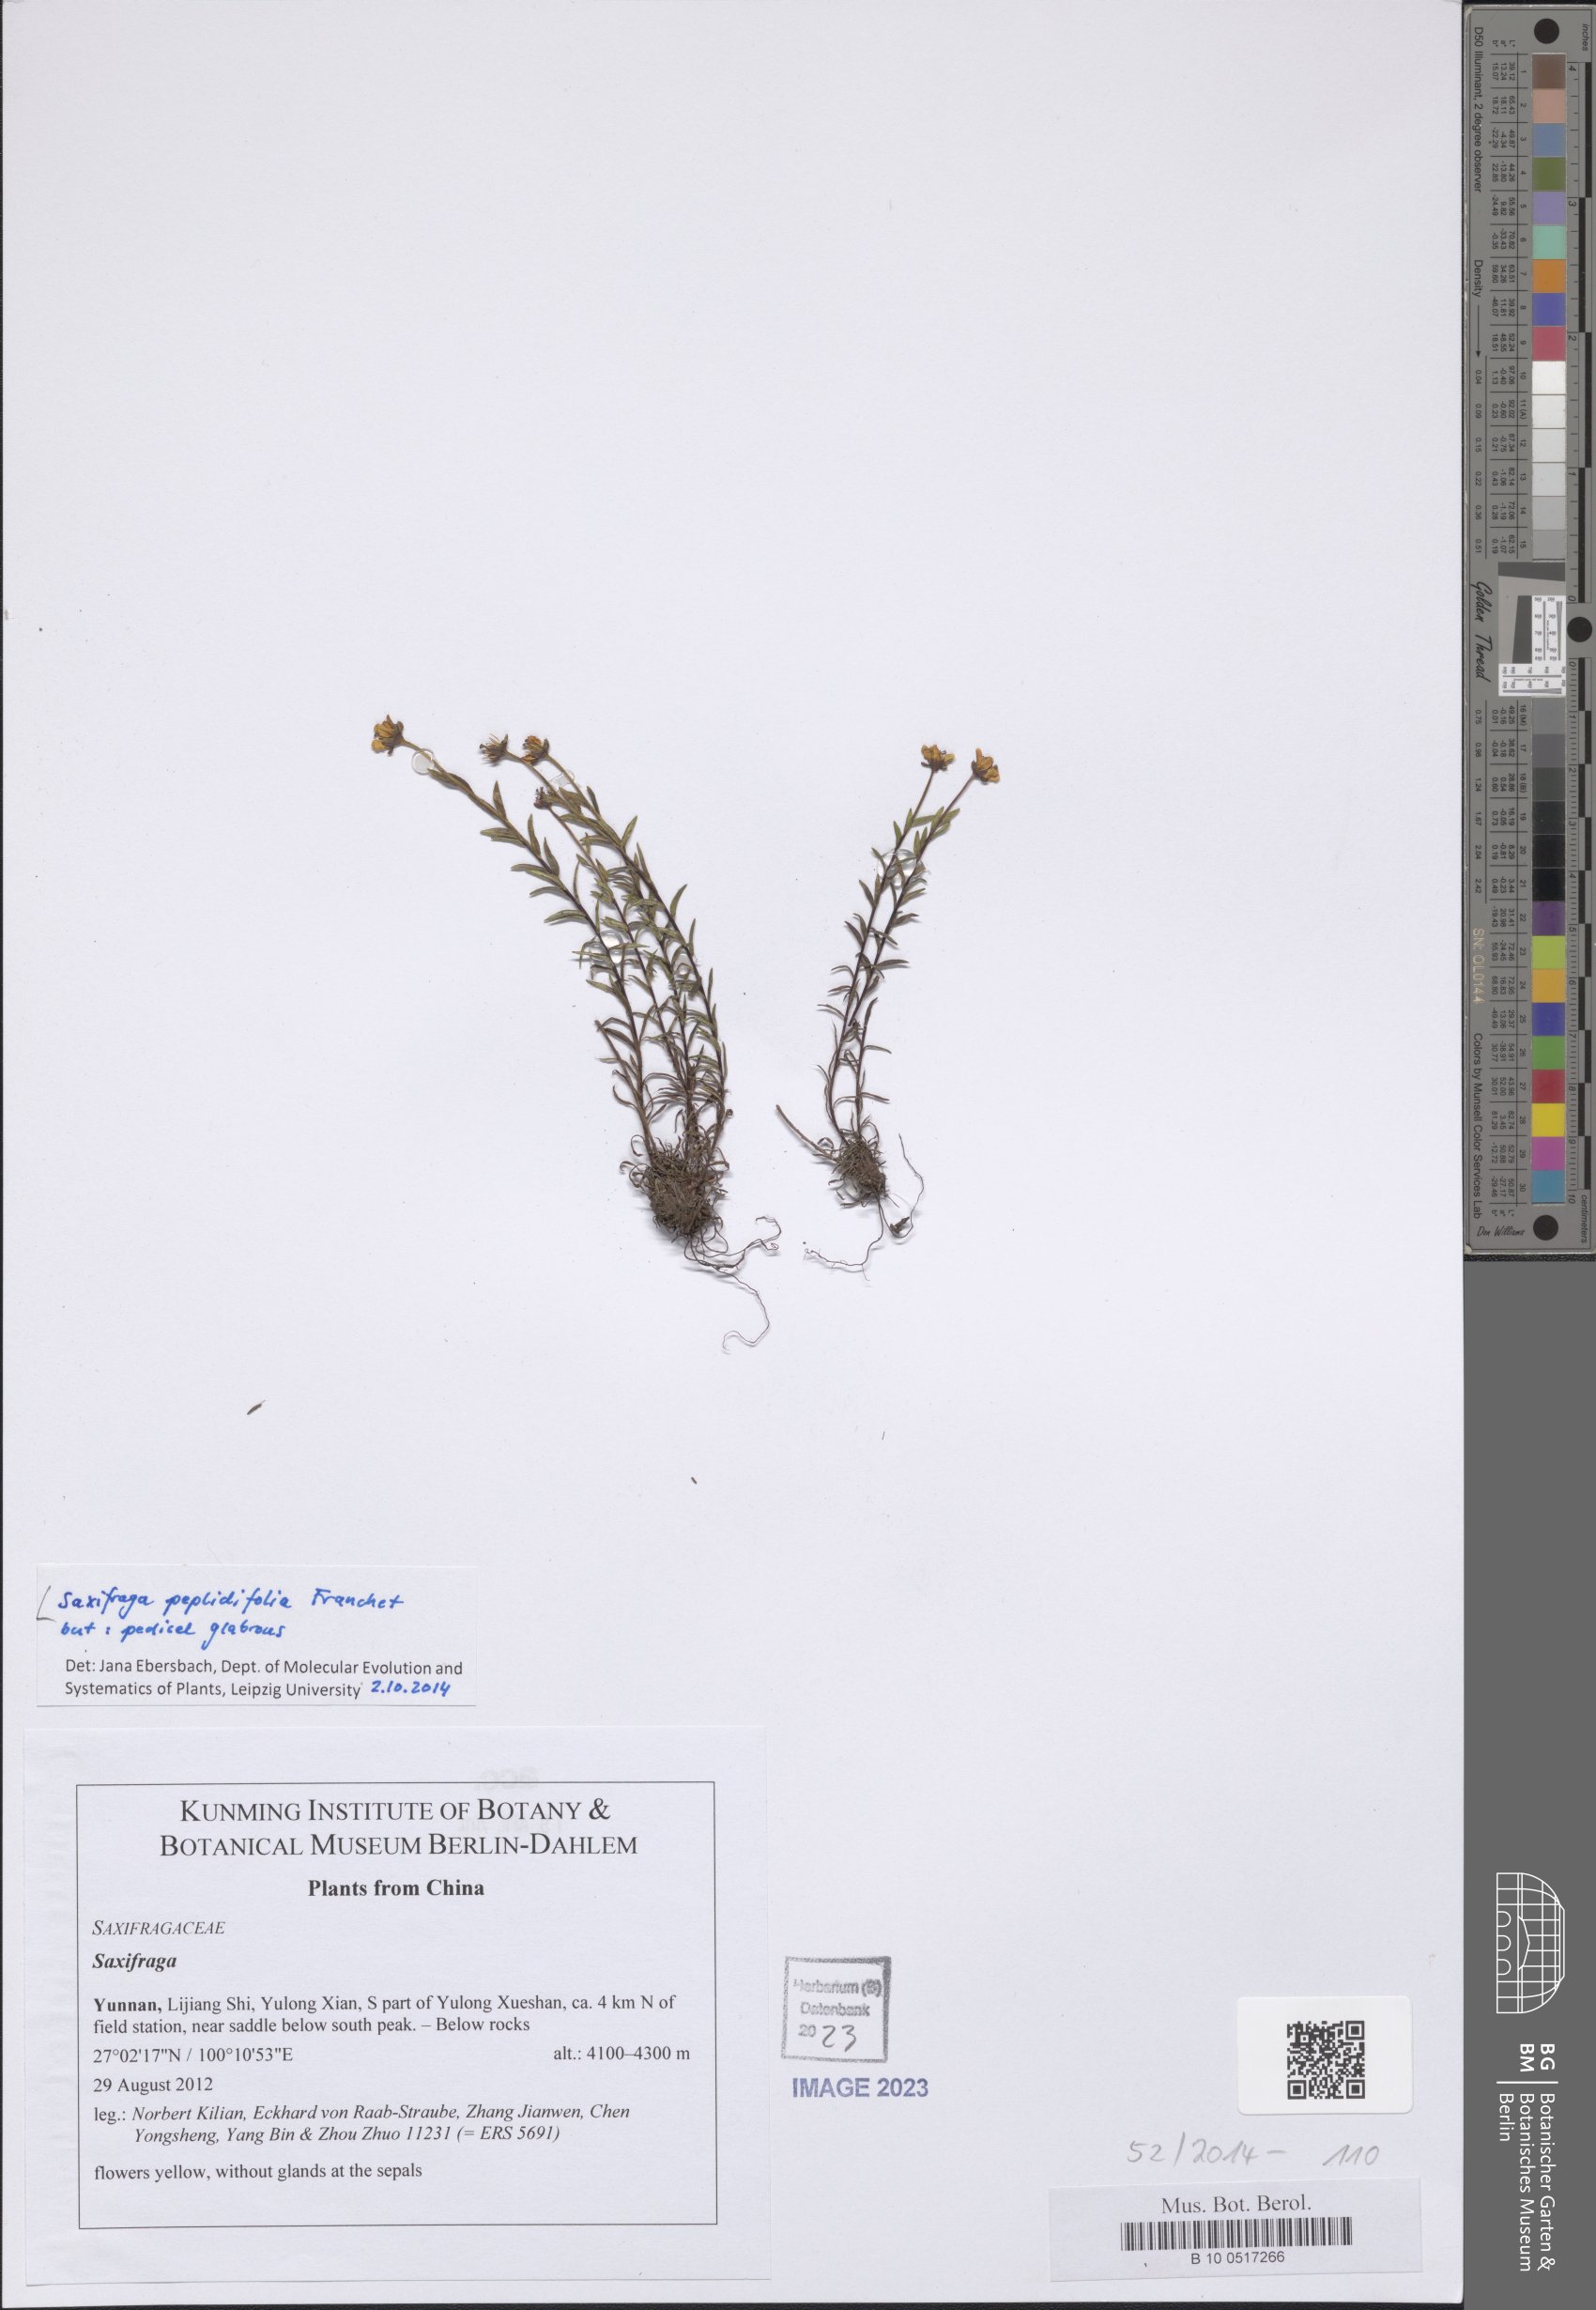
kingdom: Plantae
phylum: Tracheophyta
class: Magnoliopsida
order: Saxifragales
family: Saxifragaceae
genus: Saxifraga
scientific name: Saxifraga peplidifolia
